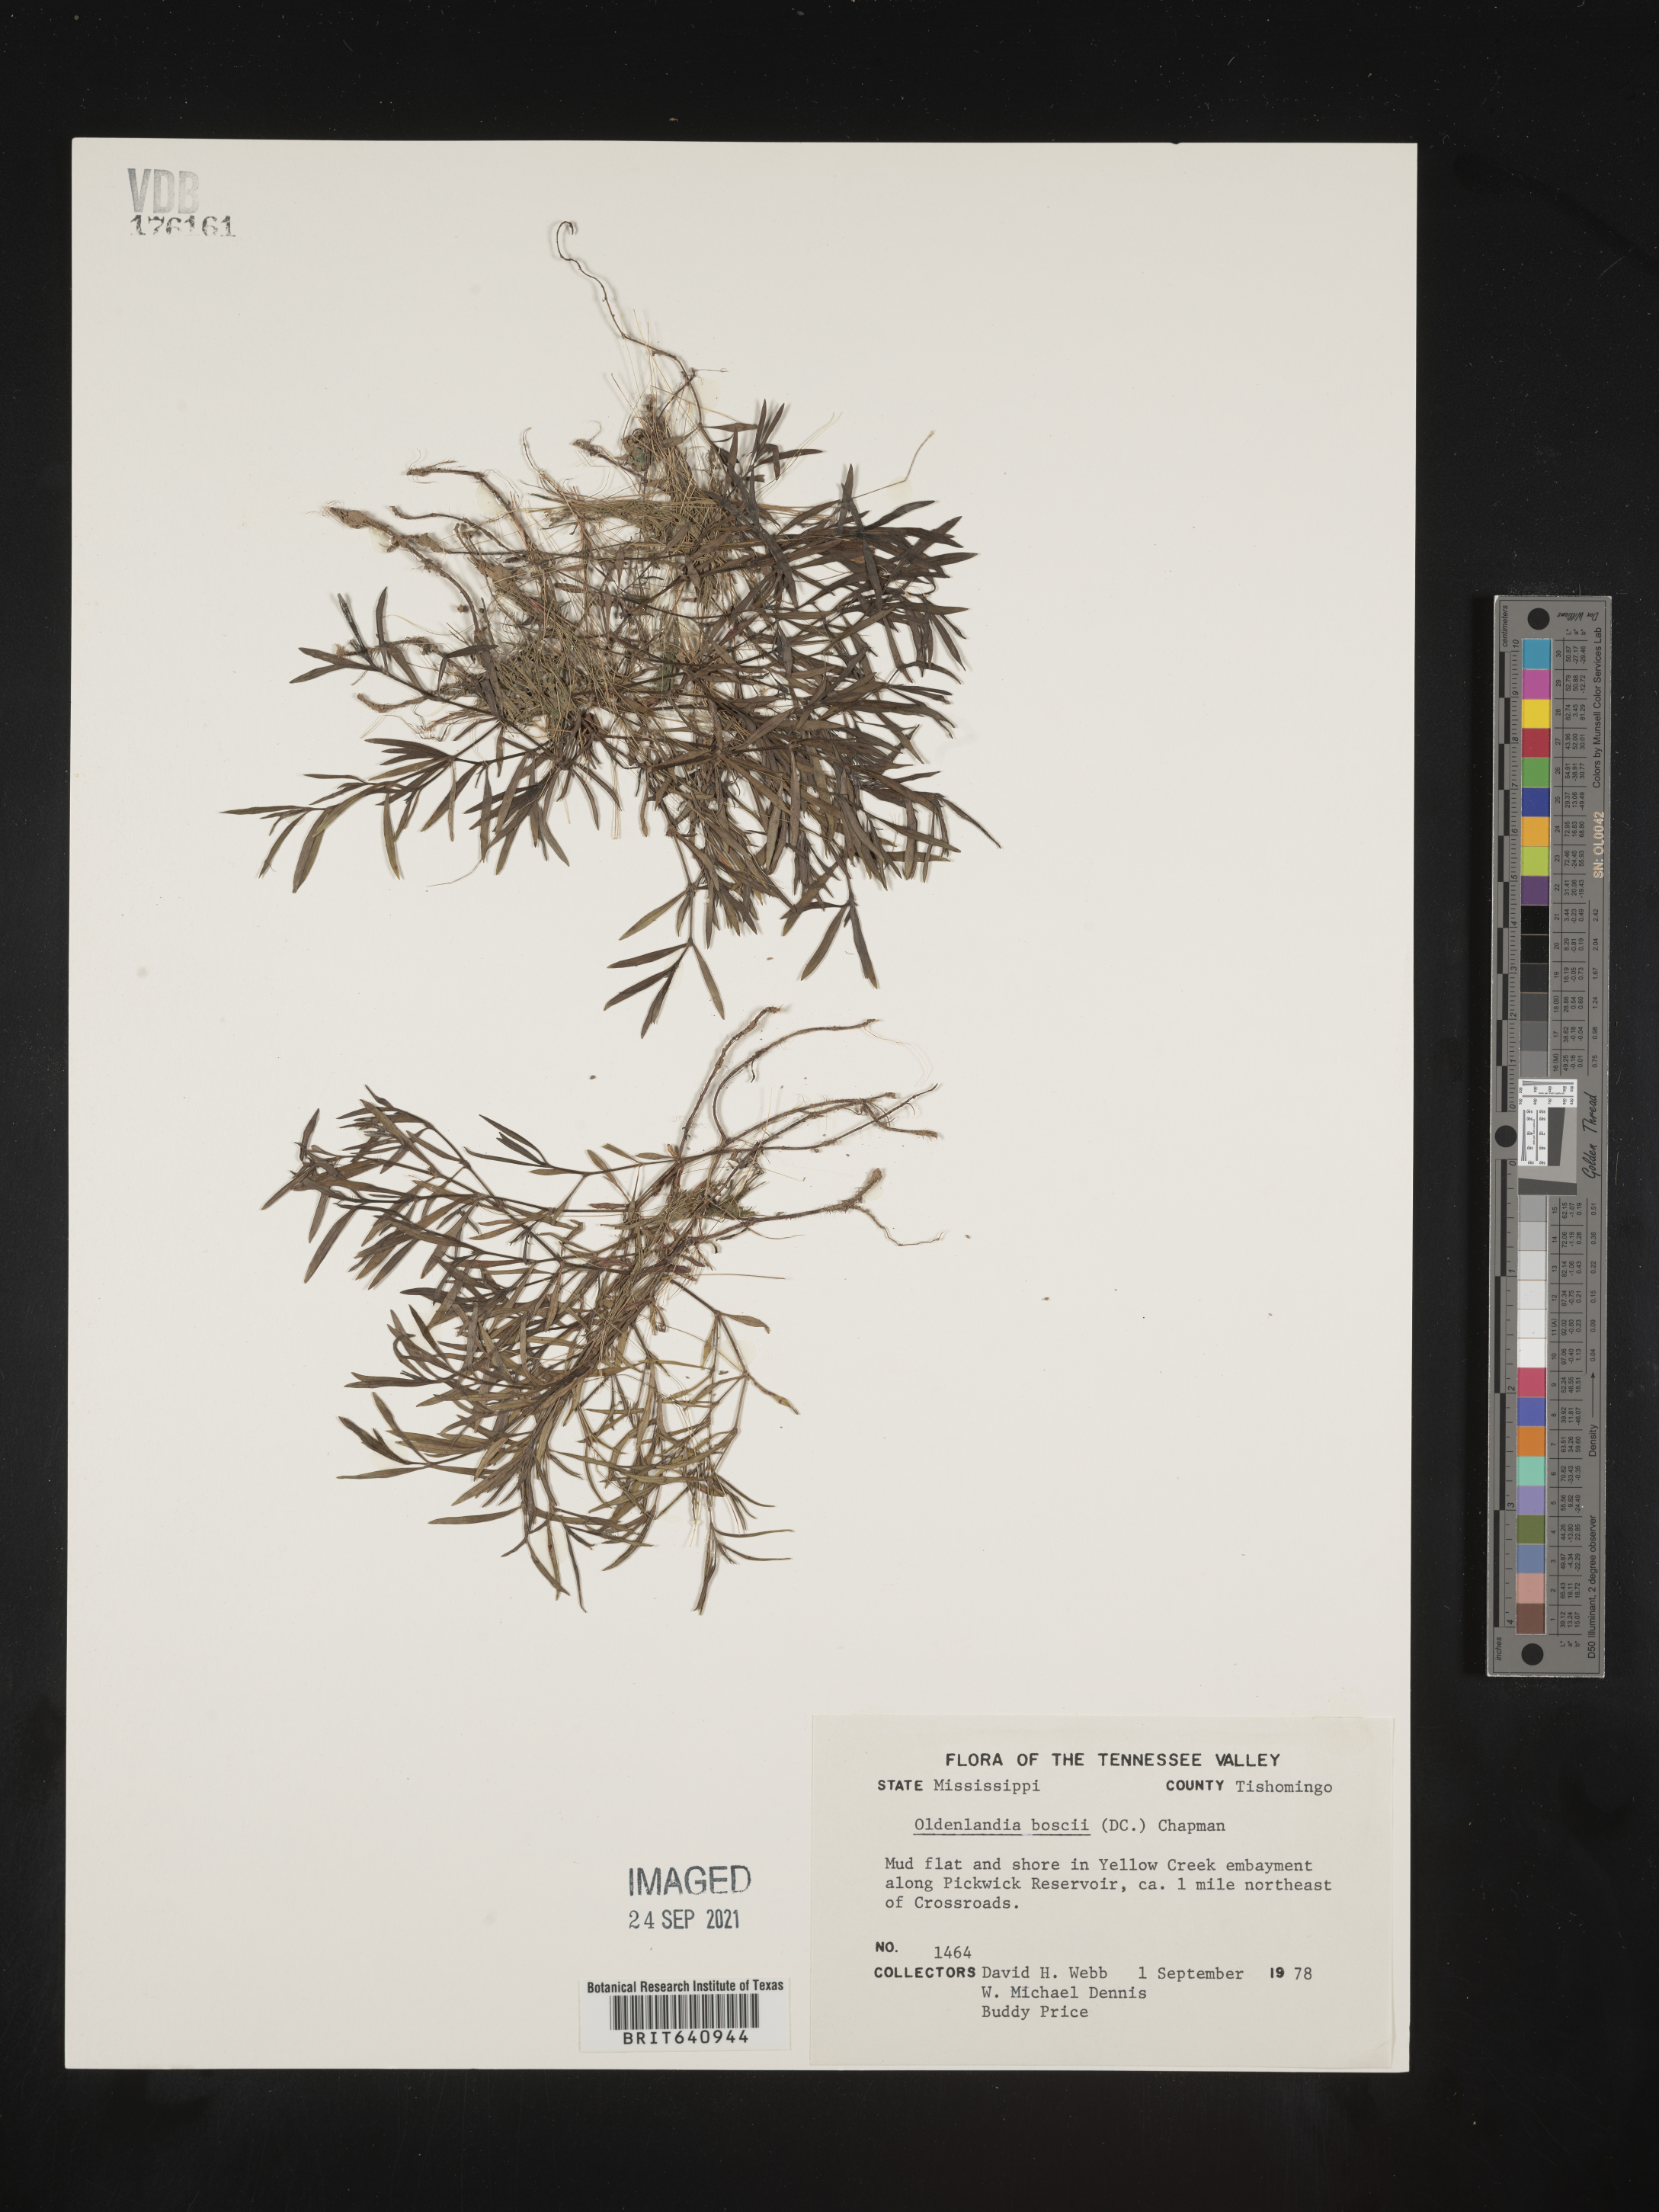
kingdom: Plantae
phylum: Tracheophyta
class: Magnoliopsida
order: Gentianales
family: Rubiaceae
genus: Oldenlandia
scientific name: Oldenlandia boscii
